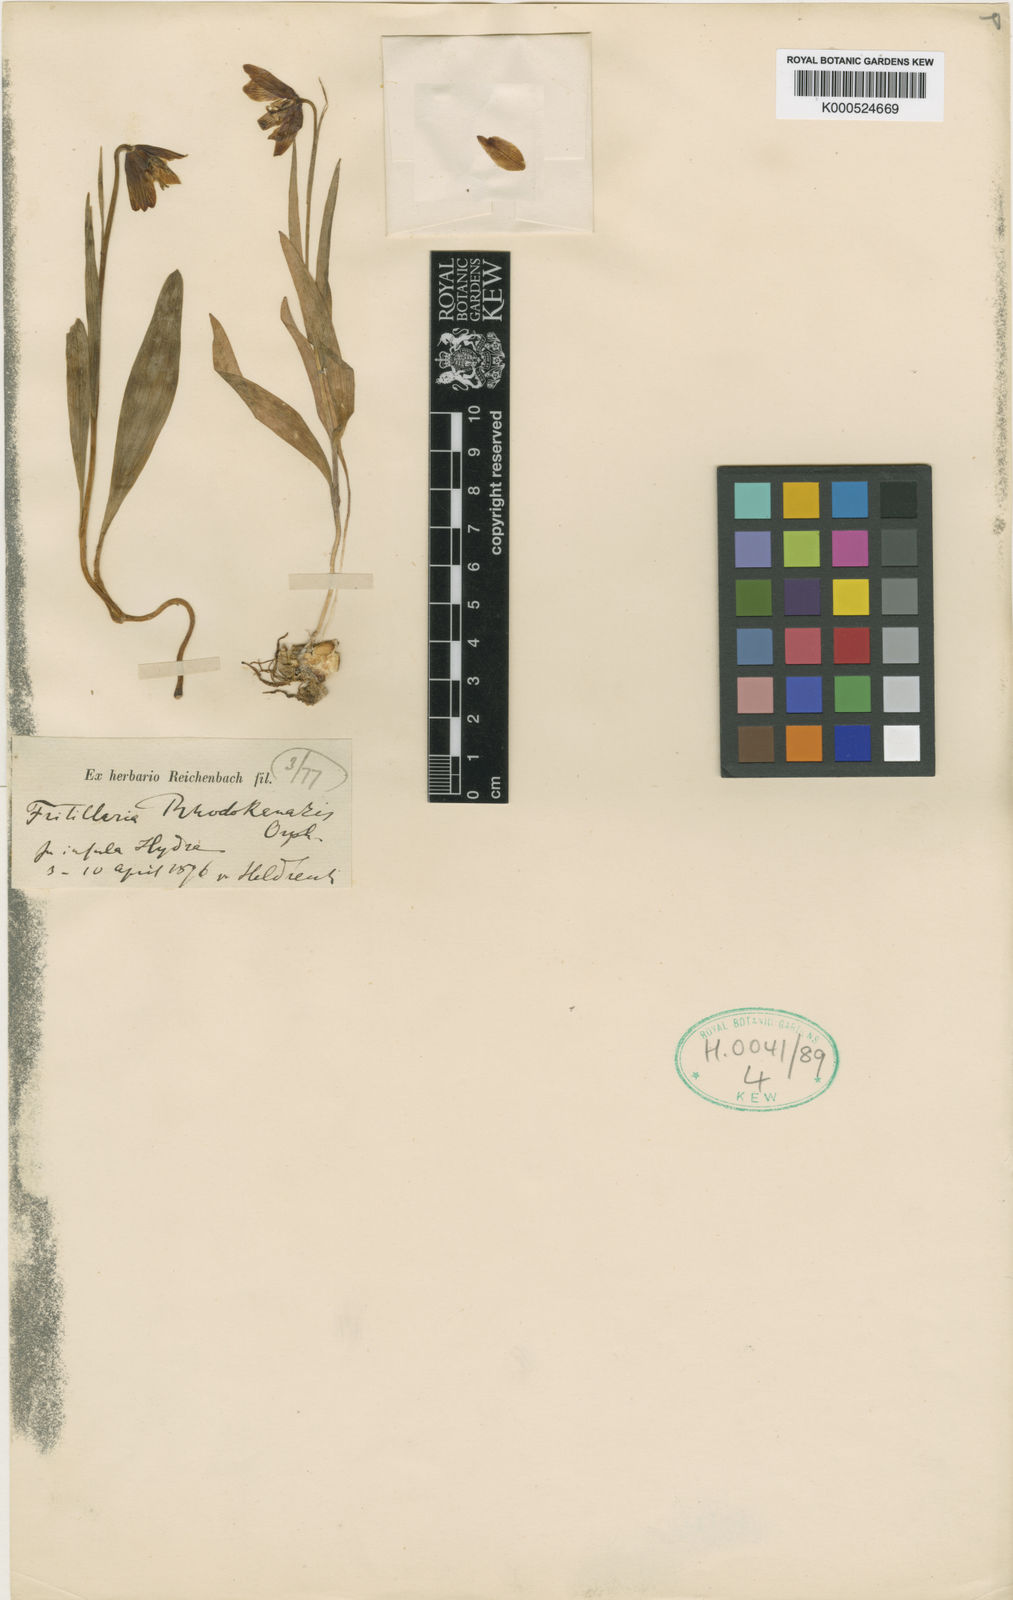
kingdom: Plantae
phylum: Tracheophyta
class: Liliopsida
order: Liliales
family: Liliaceae
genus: Fritillaria
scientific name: Fritillaria
